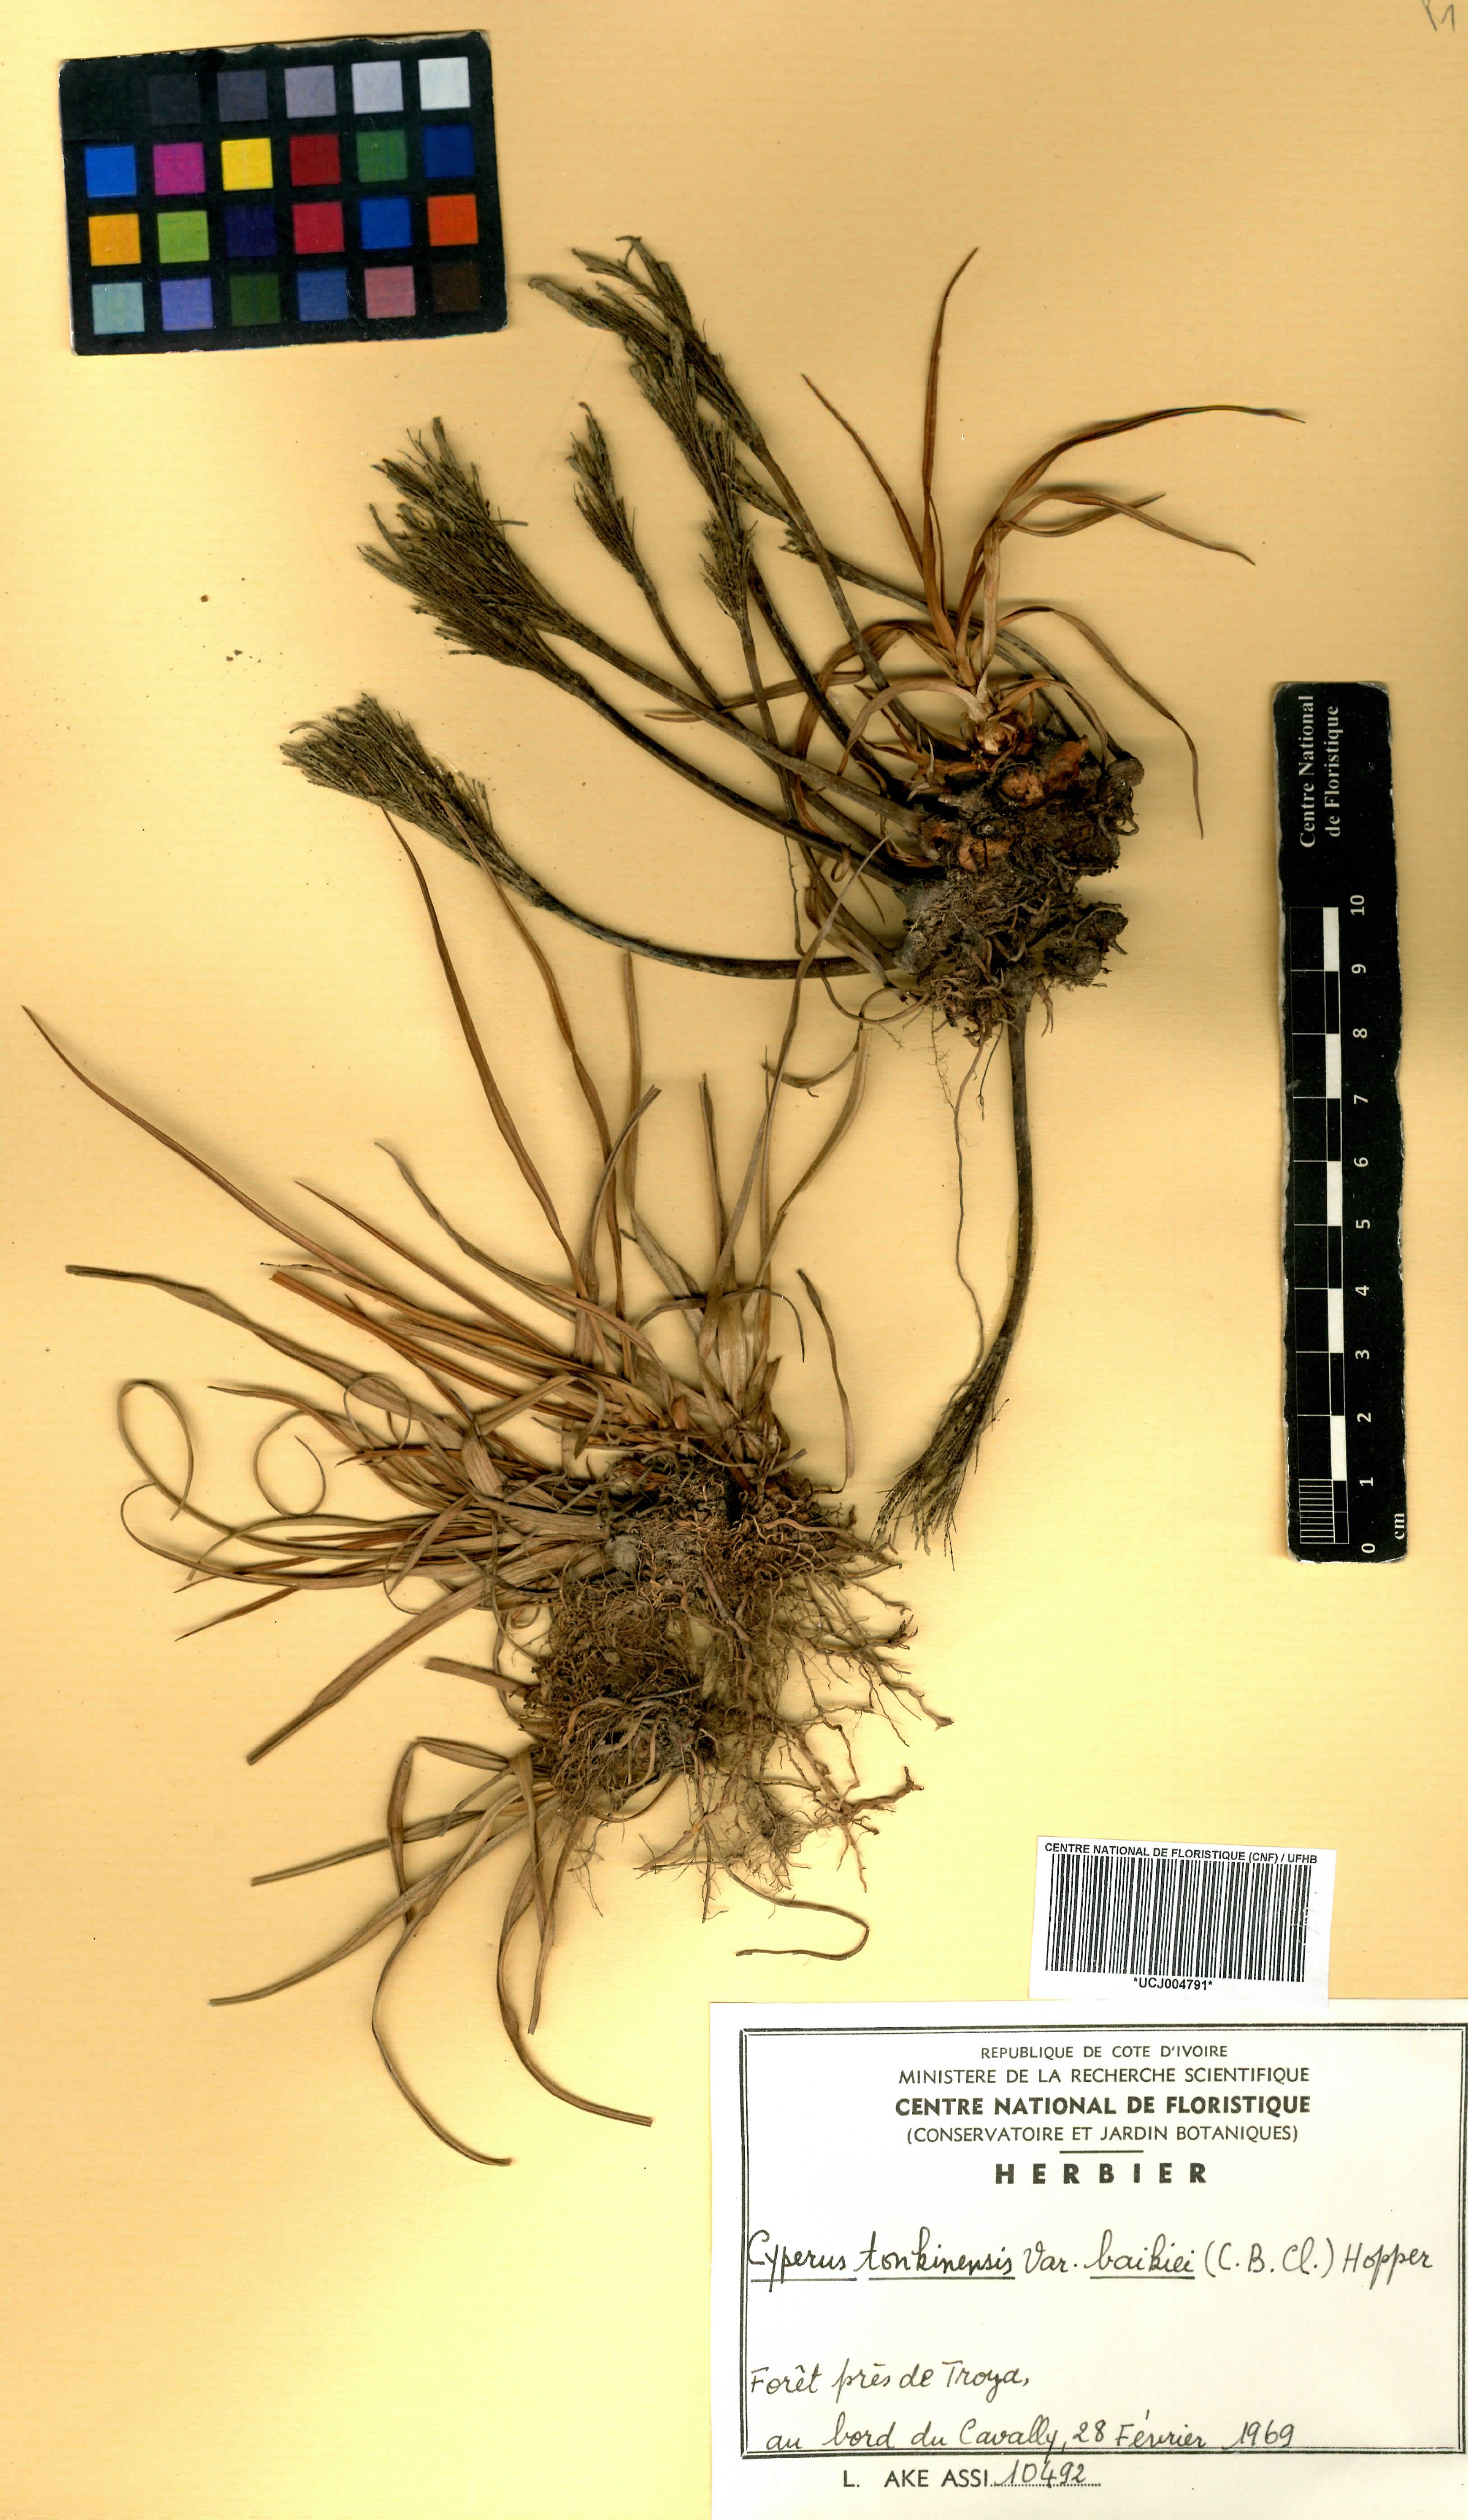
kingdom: Plantae
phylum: Tracheophyta
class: Liliopsida
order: Poales
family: Cyperaceae
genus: Cyperus
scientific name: Cyperus tonkinensis
